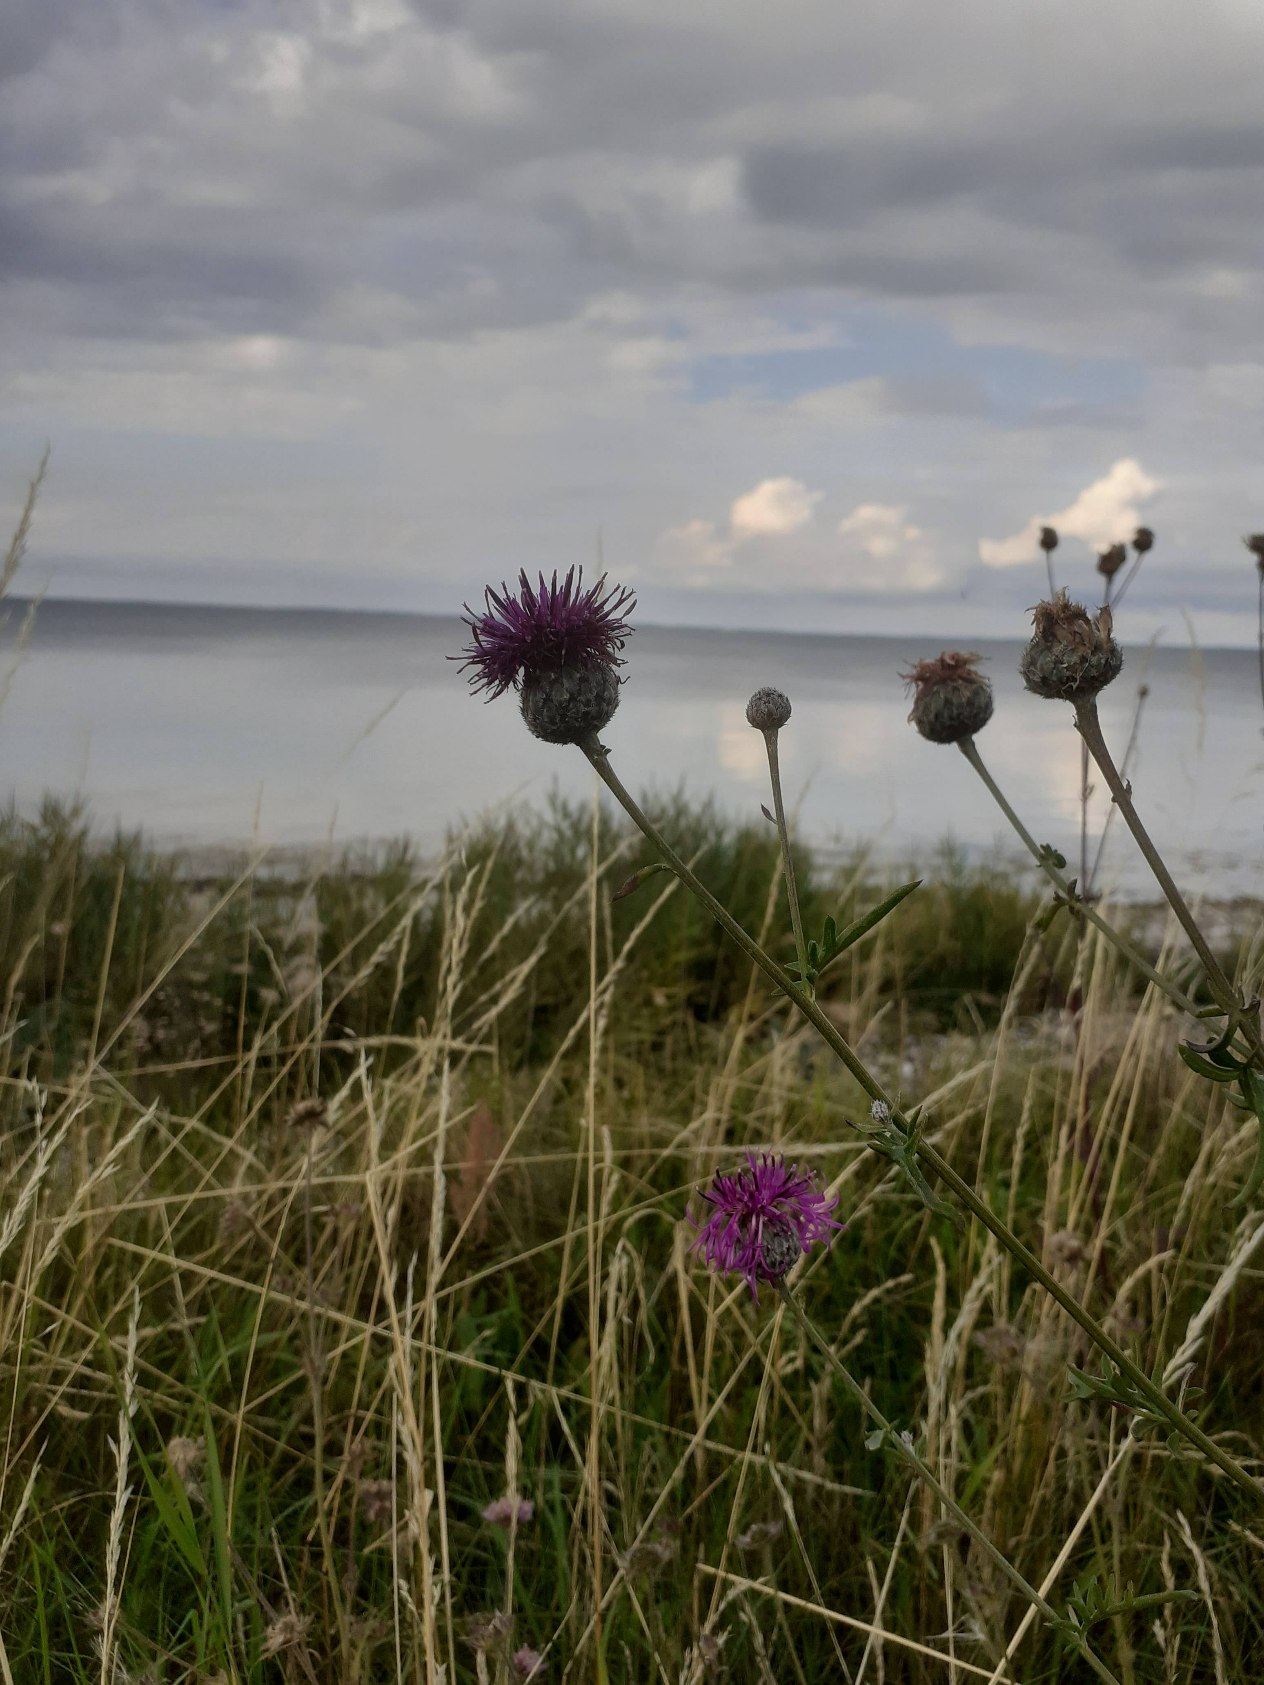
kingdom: Plantae
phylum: Tracheophyta
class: Magnoliopsida
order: Asterales
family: Asteraceae
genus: Centaurea
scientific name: Centaurea scabiosa
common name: Stor knopurt
